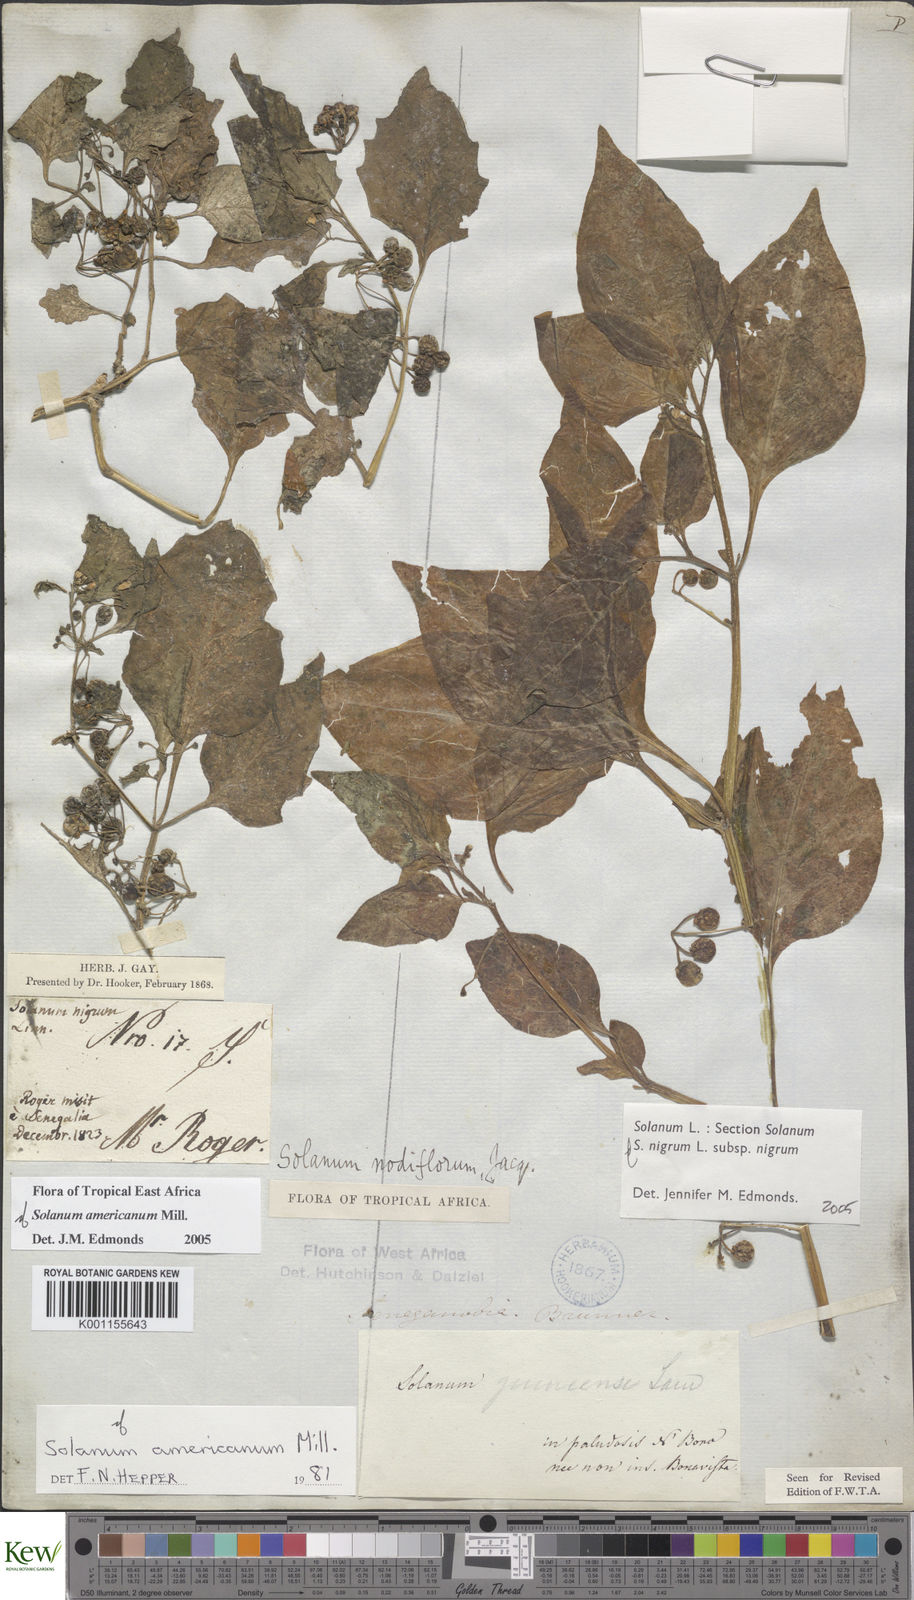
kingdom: Plantae
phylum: Tracheophyta
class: Magnoliopsida
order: Solanales
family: Solanaceae
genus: Solanum
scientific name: Solanum tarderemotum
